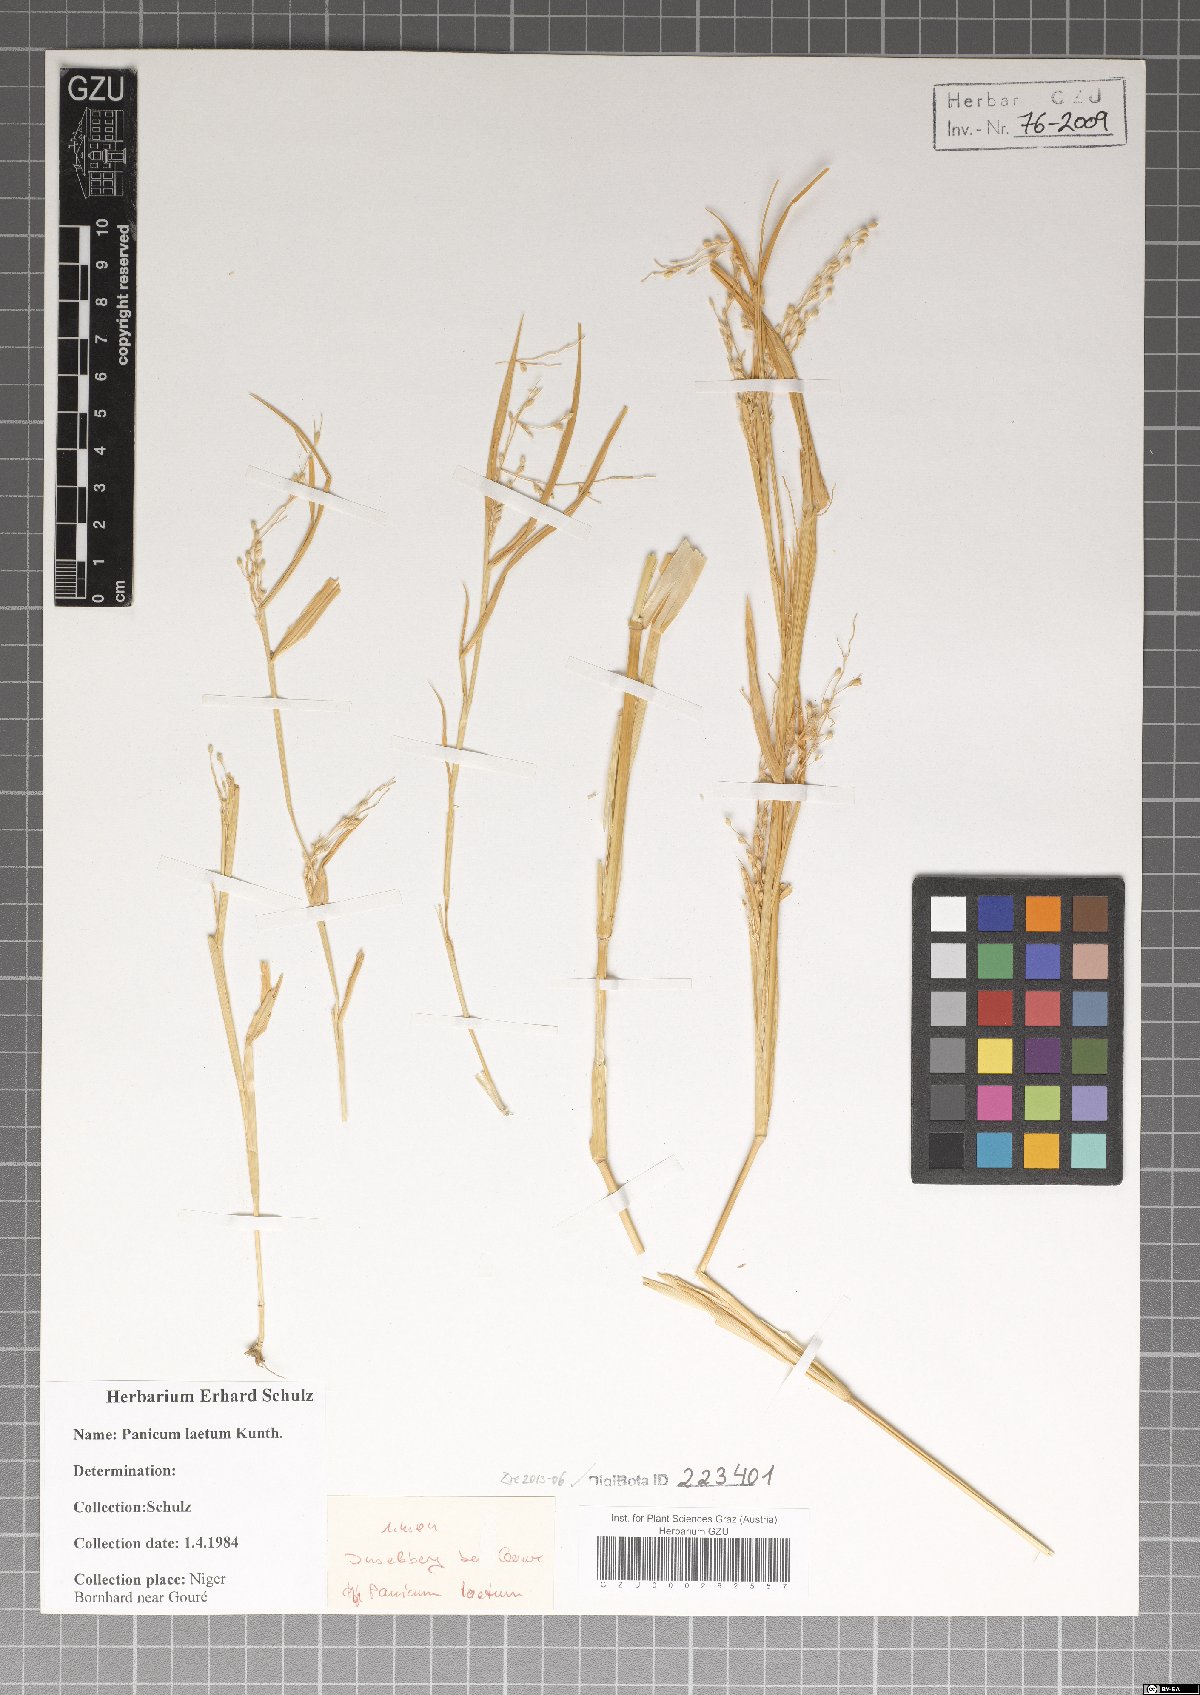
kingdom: Plantae
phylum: Tracheophyta
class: Liliopsida
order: Poales
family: Poaceae
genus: Panicum
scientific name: Panicum laetum
